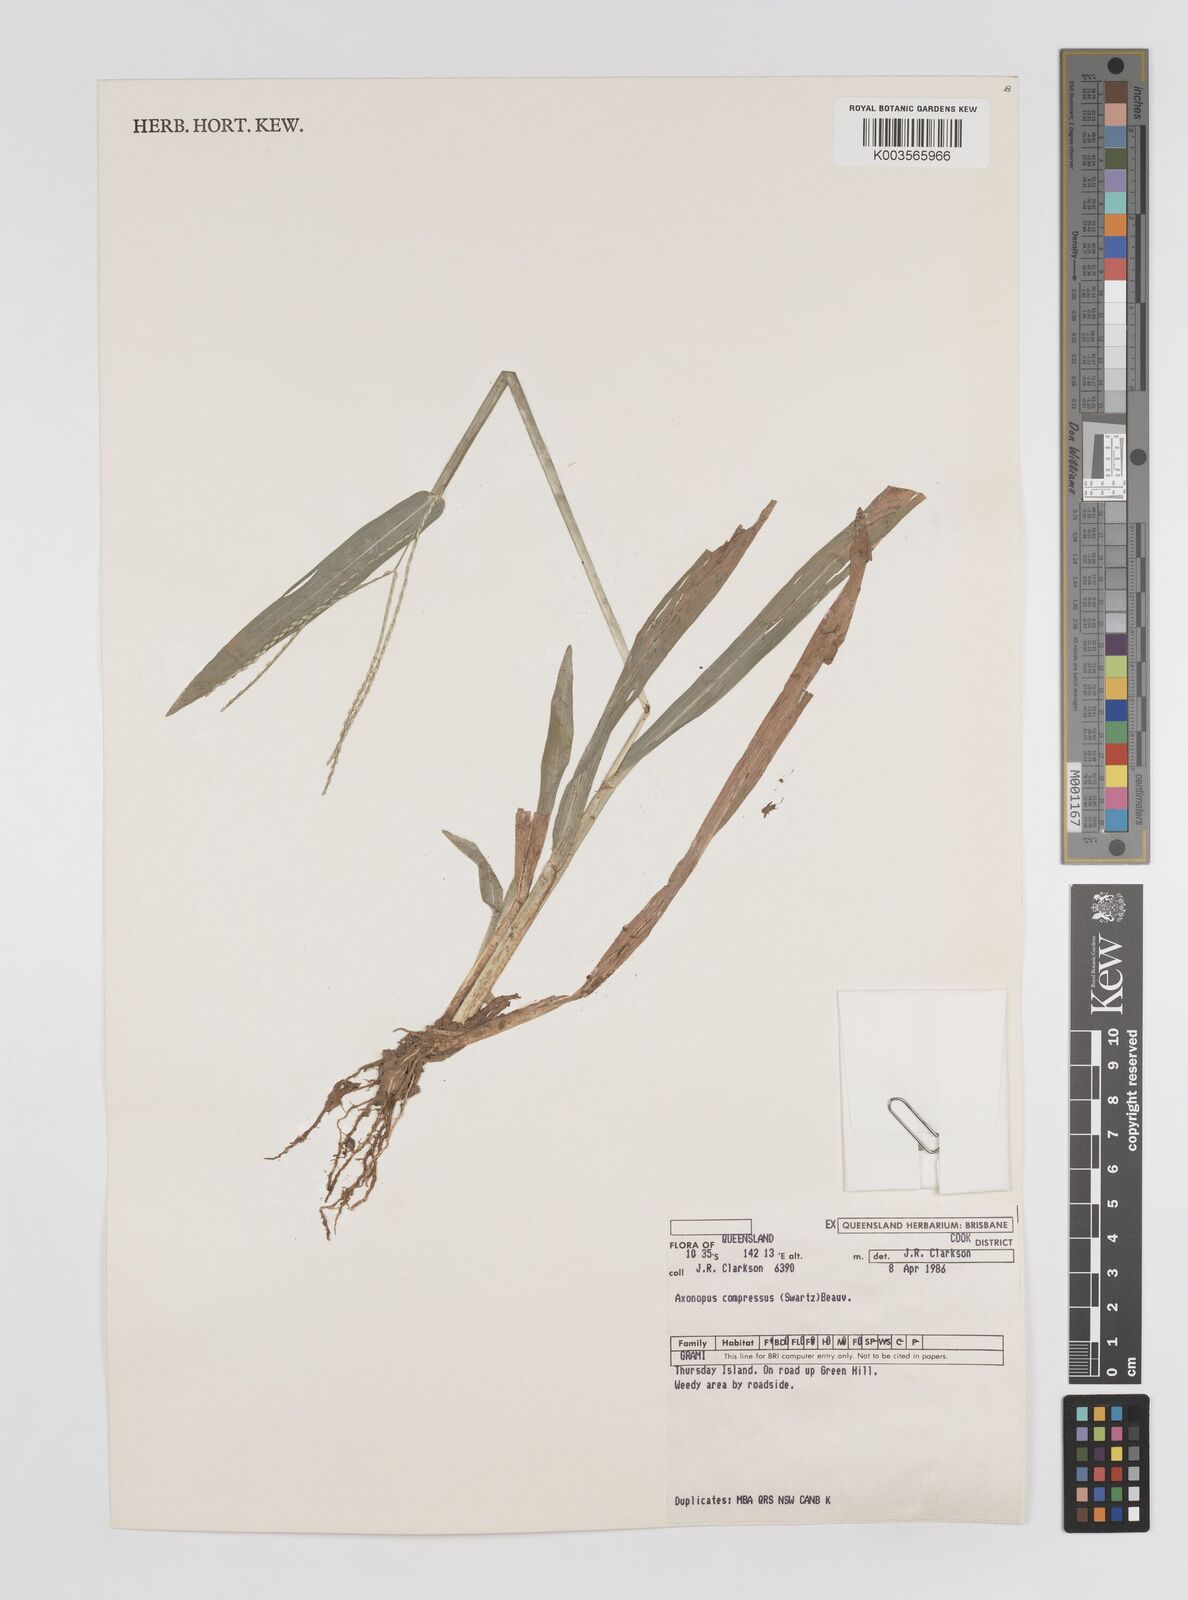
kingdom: Plantae
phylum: Tracheophyta
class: Liliopsida
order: Poales
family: Poaceae
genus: Axonopus
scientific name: Axonopus compressus
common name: American carpet grass
